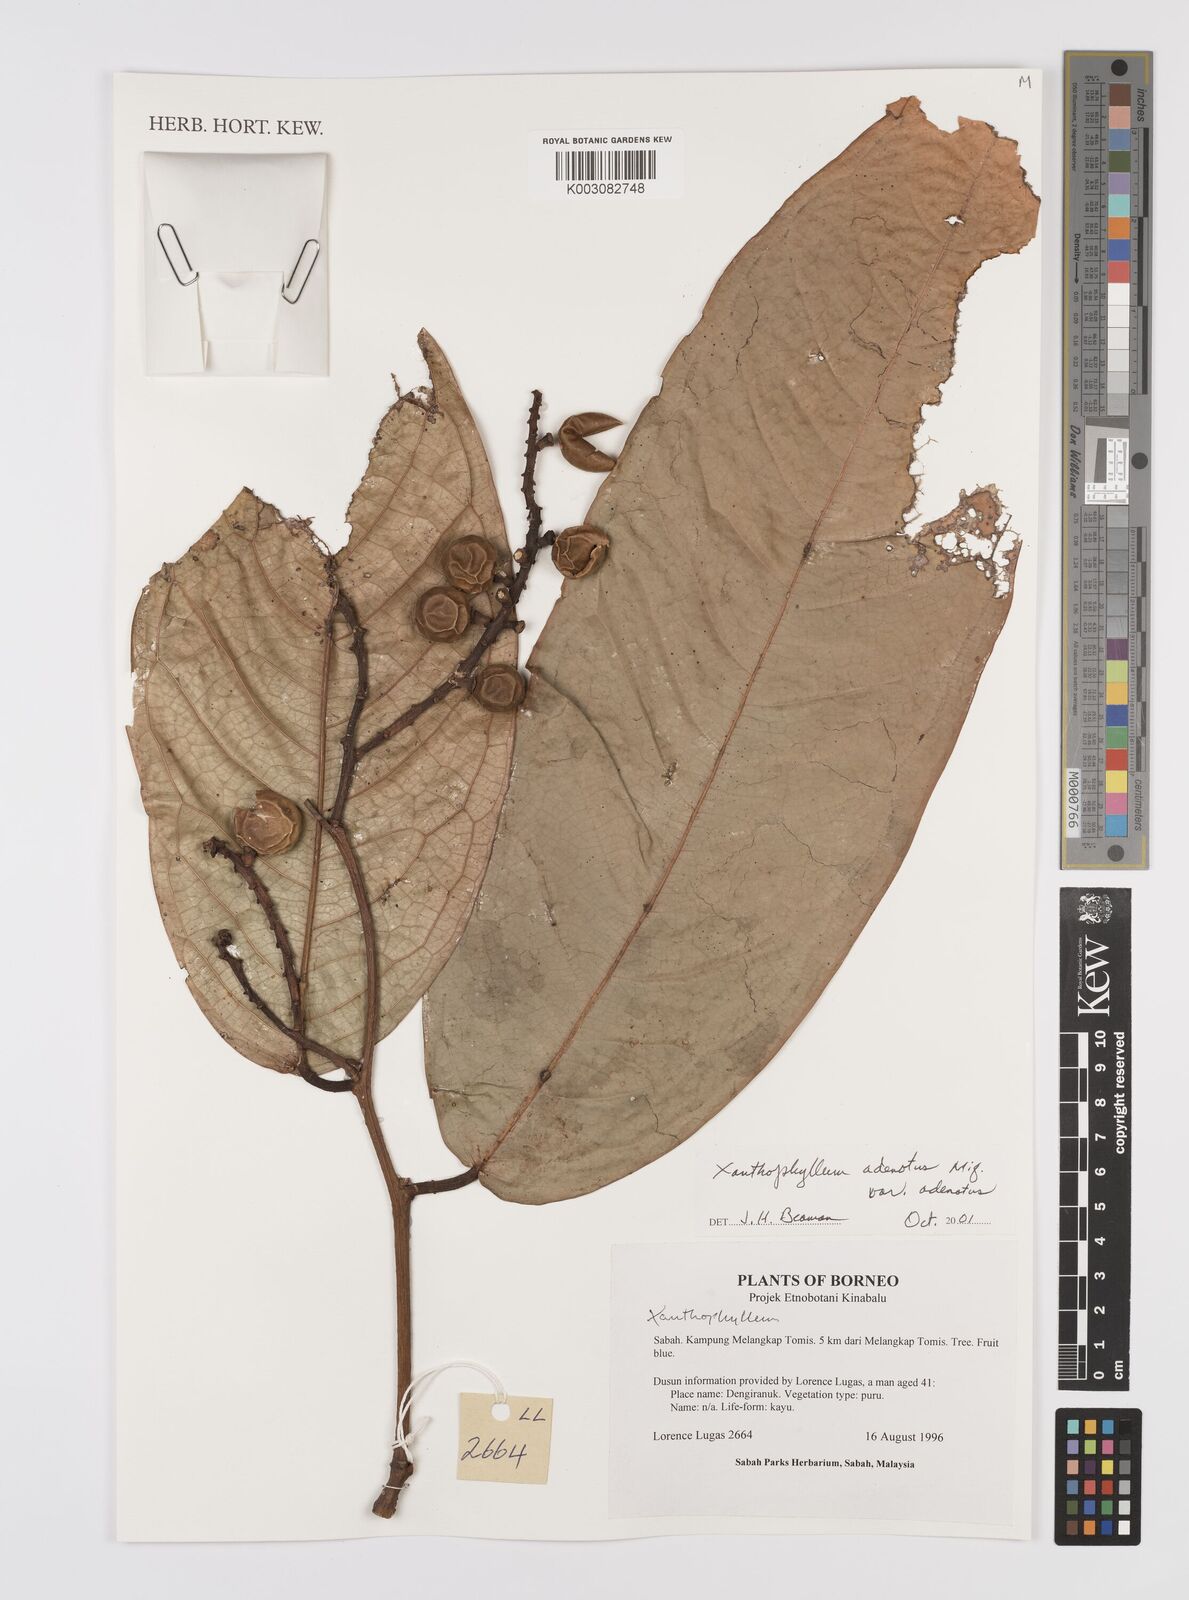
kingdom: Plantae
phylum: Tracheophyta
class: Magnoliopsida
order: Fabales
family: Polygalaceae
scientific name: Polygalaceae
